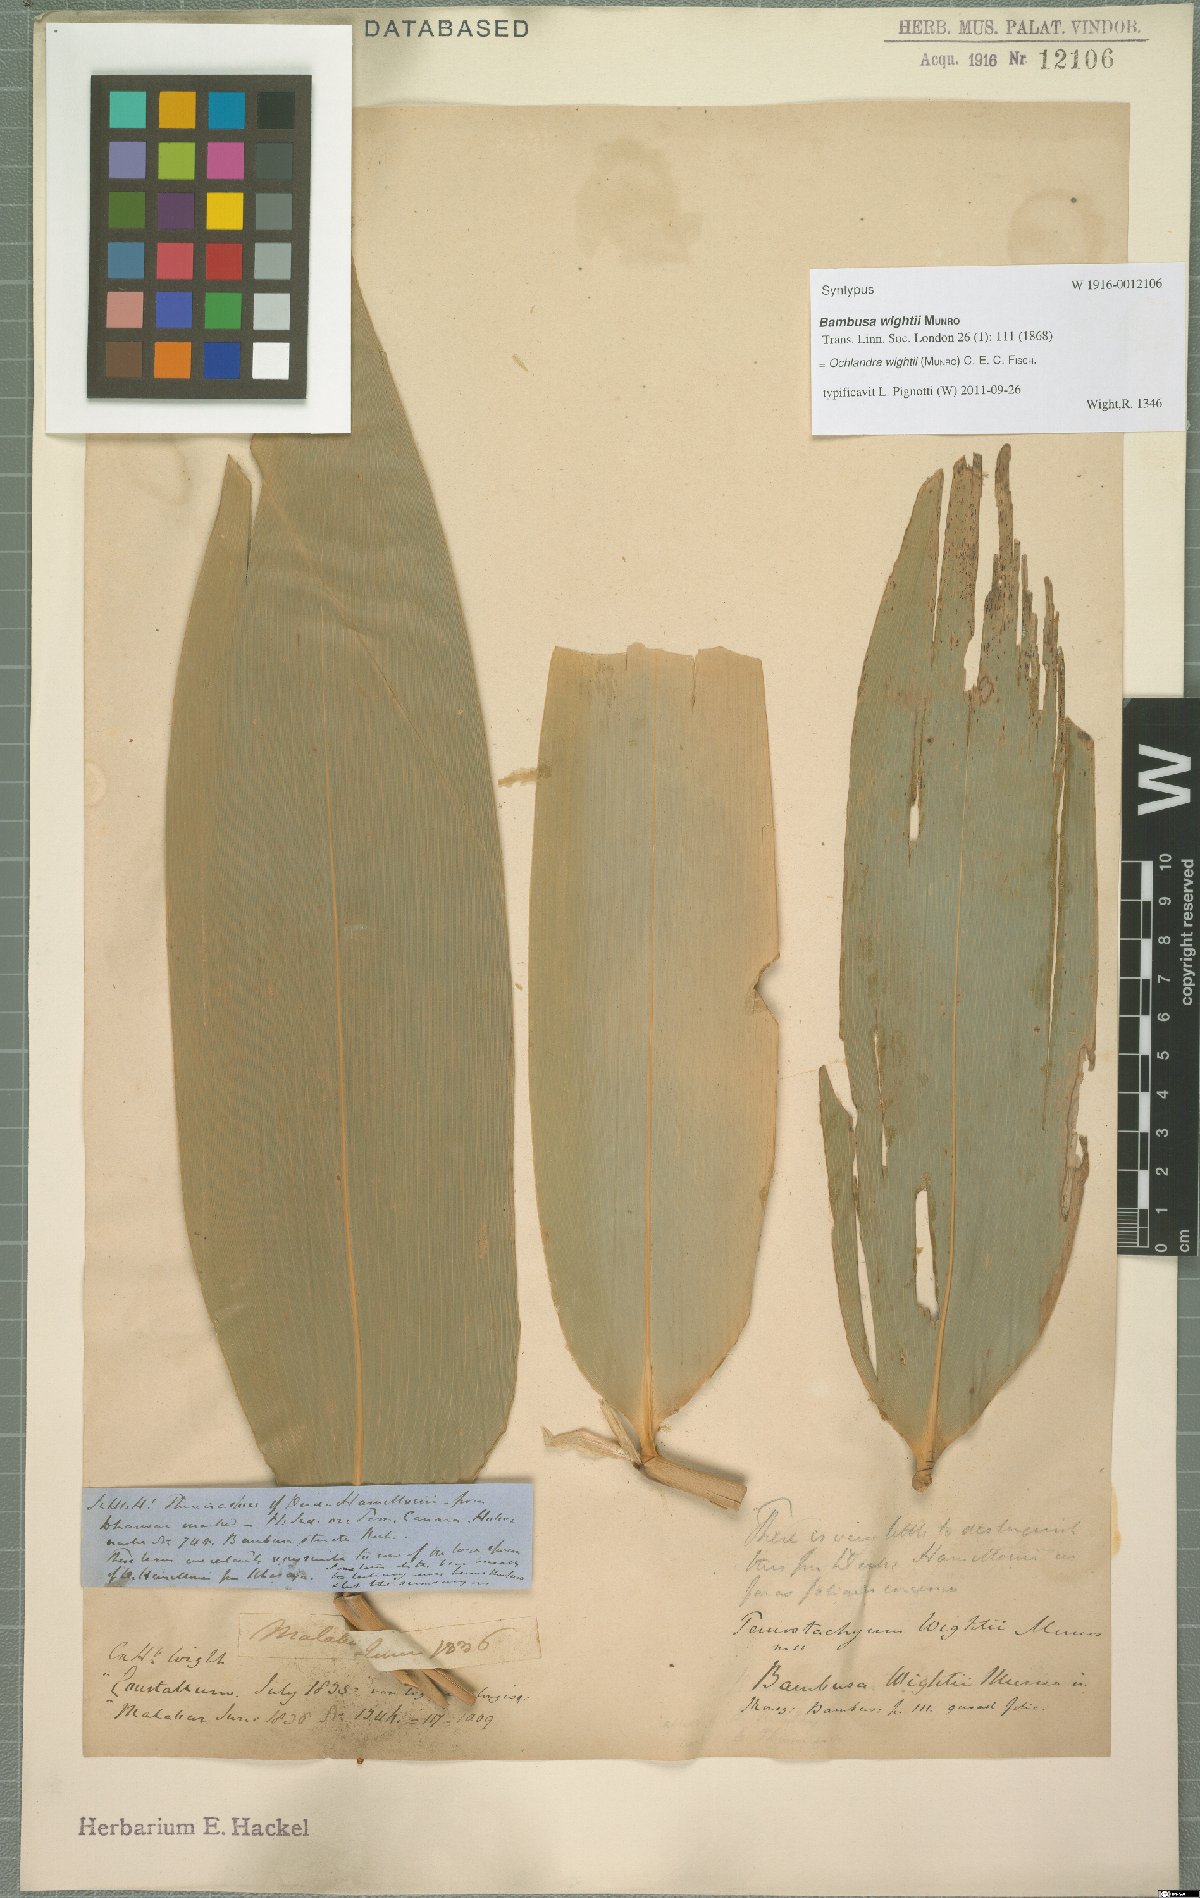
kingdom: Plantae
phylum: Tracheophyta
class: Liliopsida
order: Poales
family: Poaceae
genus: Ochlandra
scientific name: Ochlandra wightii
